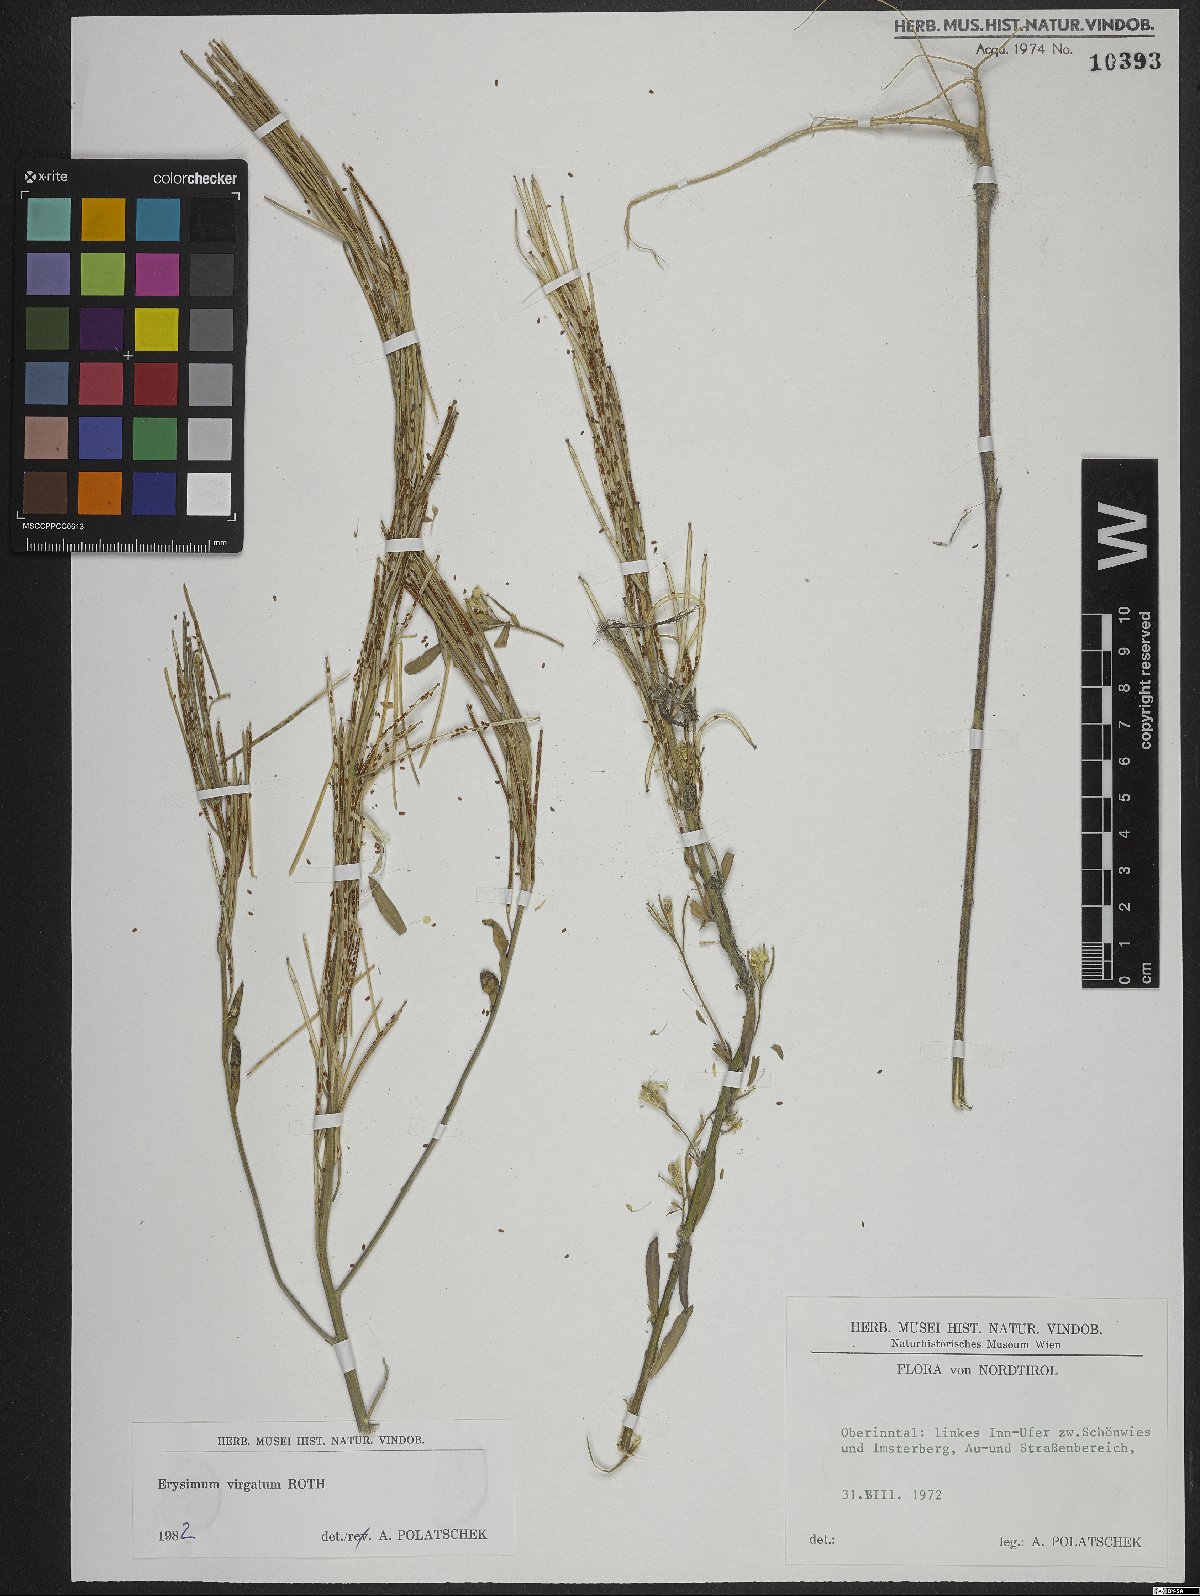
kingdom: Plantae
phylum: Tracheophyta
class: Magnoliopsida
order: Brassicales
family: Brassicaceae
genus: Erysimum
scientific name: Erysimum virgatum
